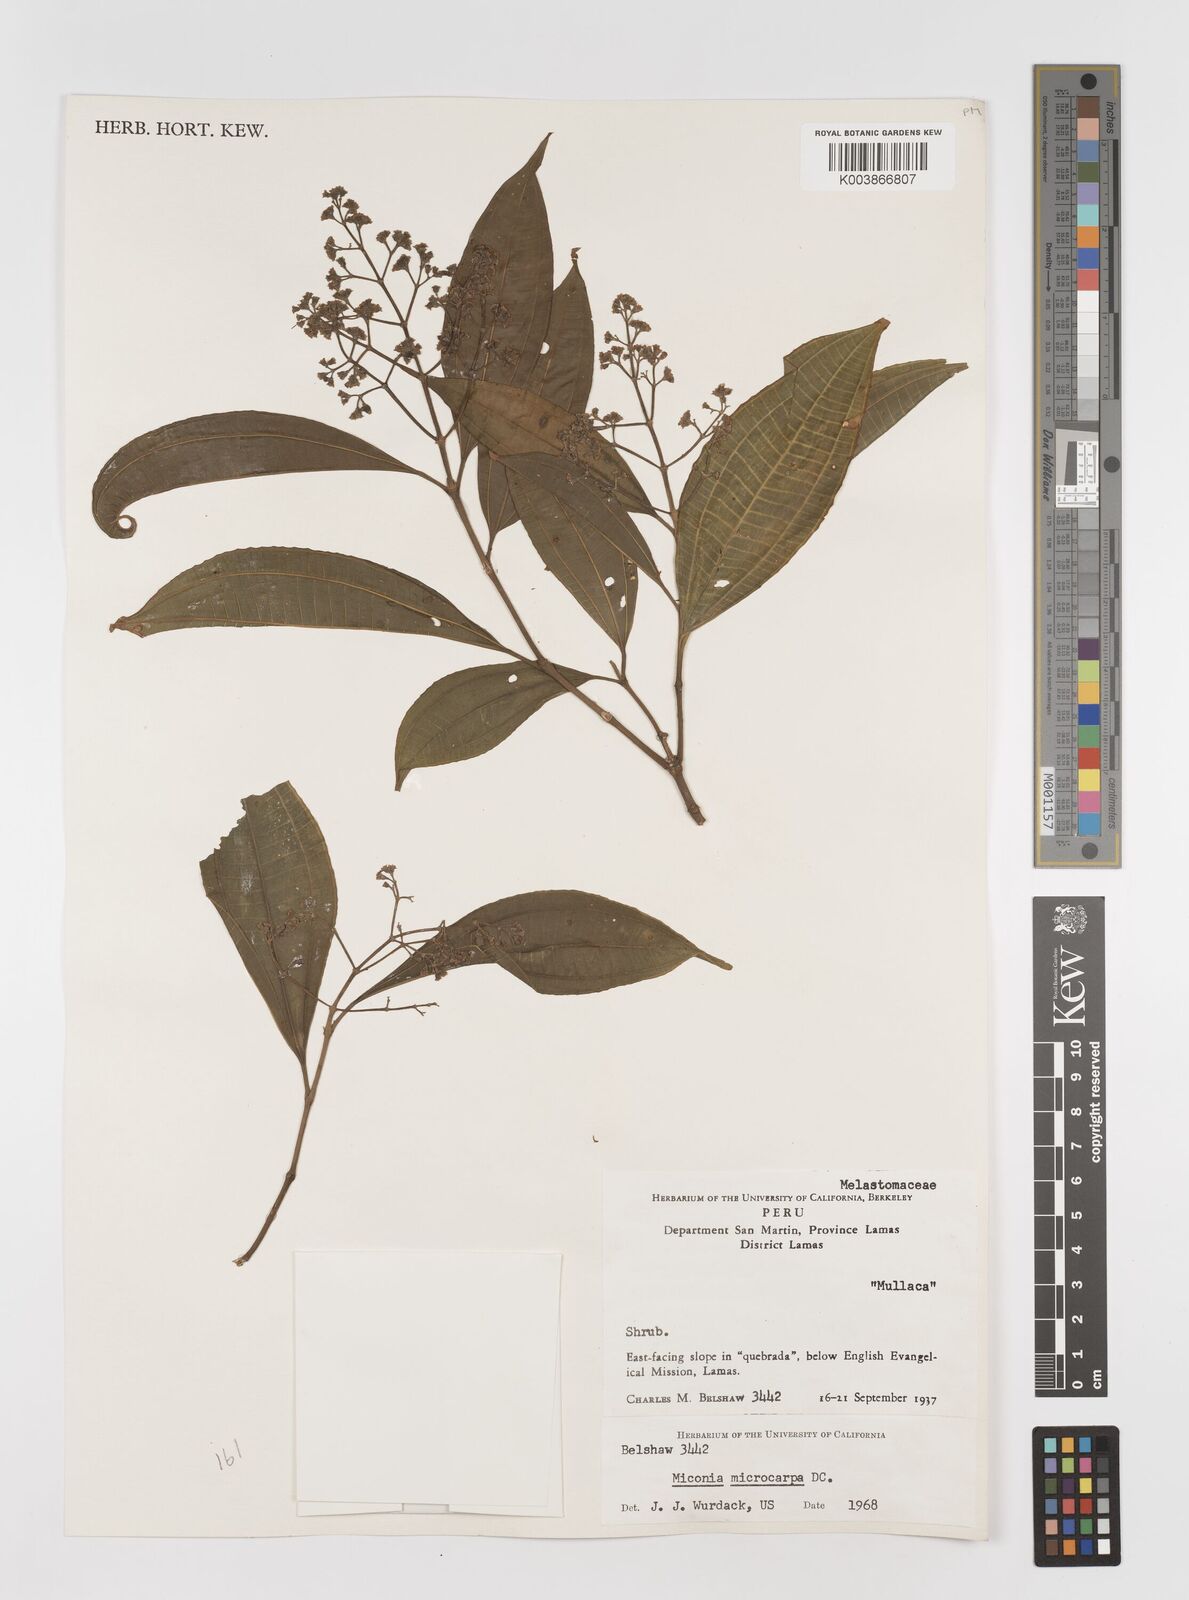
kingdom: Plantae
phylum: Tracheophyta
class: Magnoliopsida
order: Myrtales
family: Melastomataceae
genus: Miconia
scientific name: Miconia
